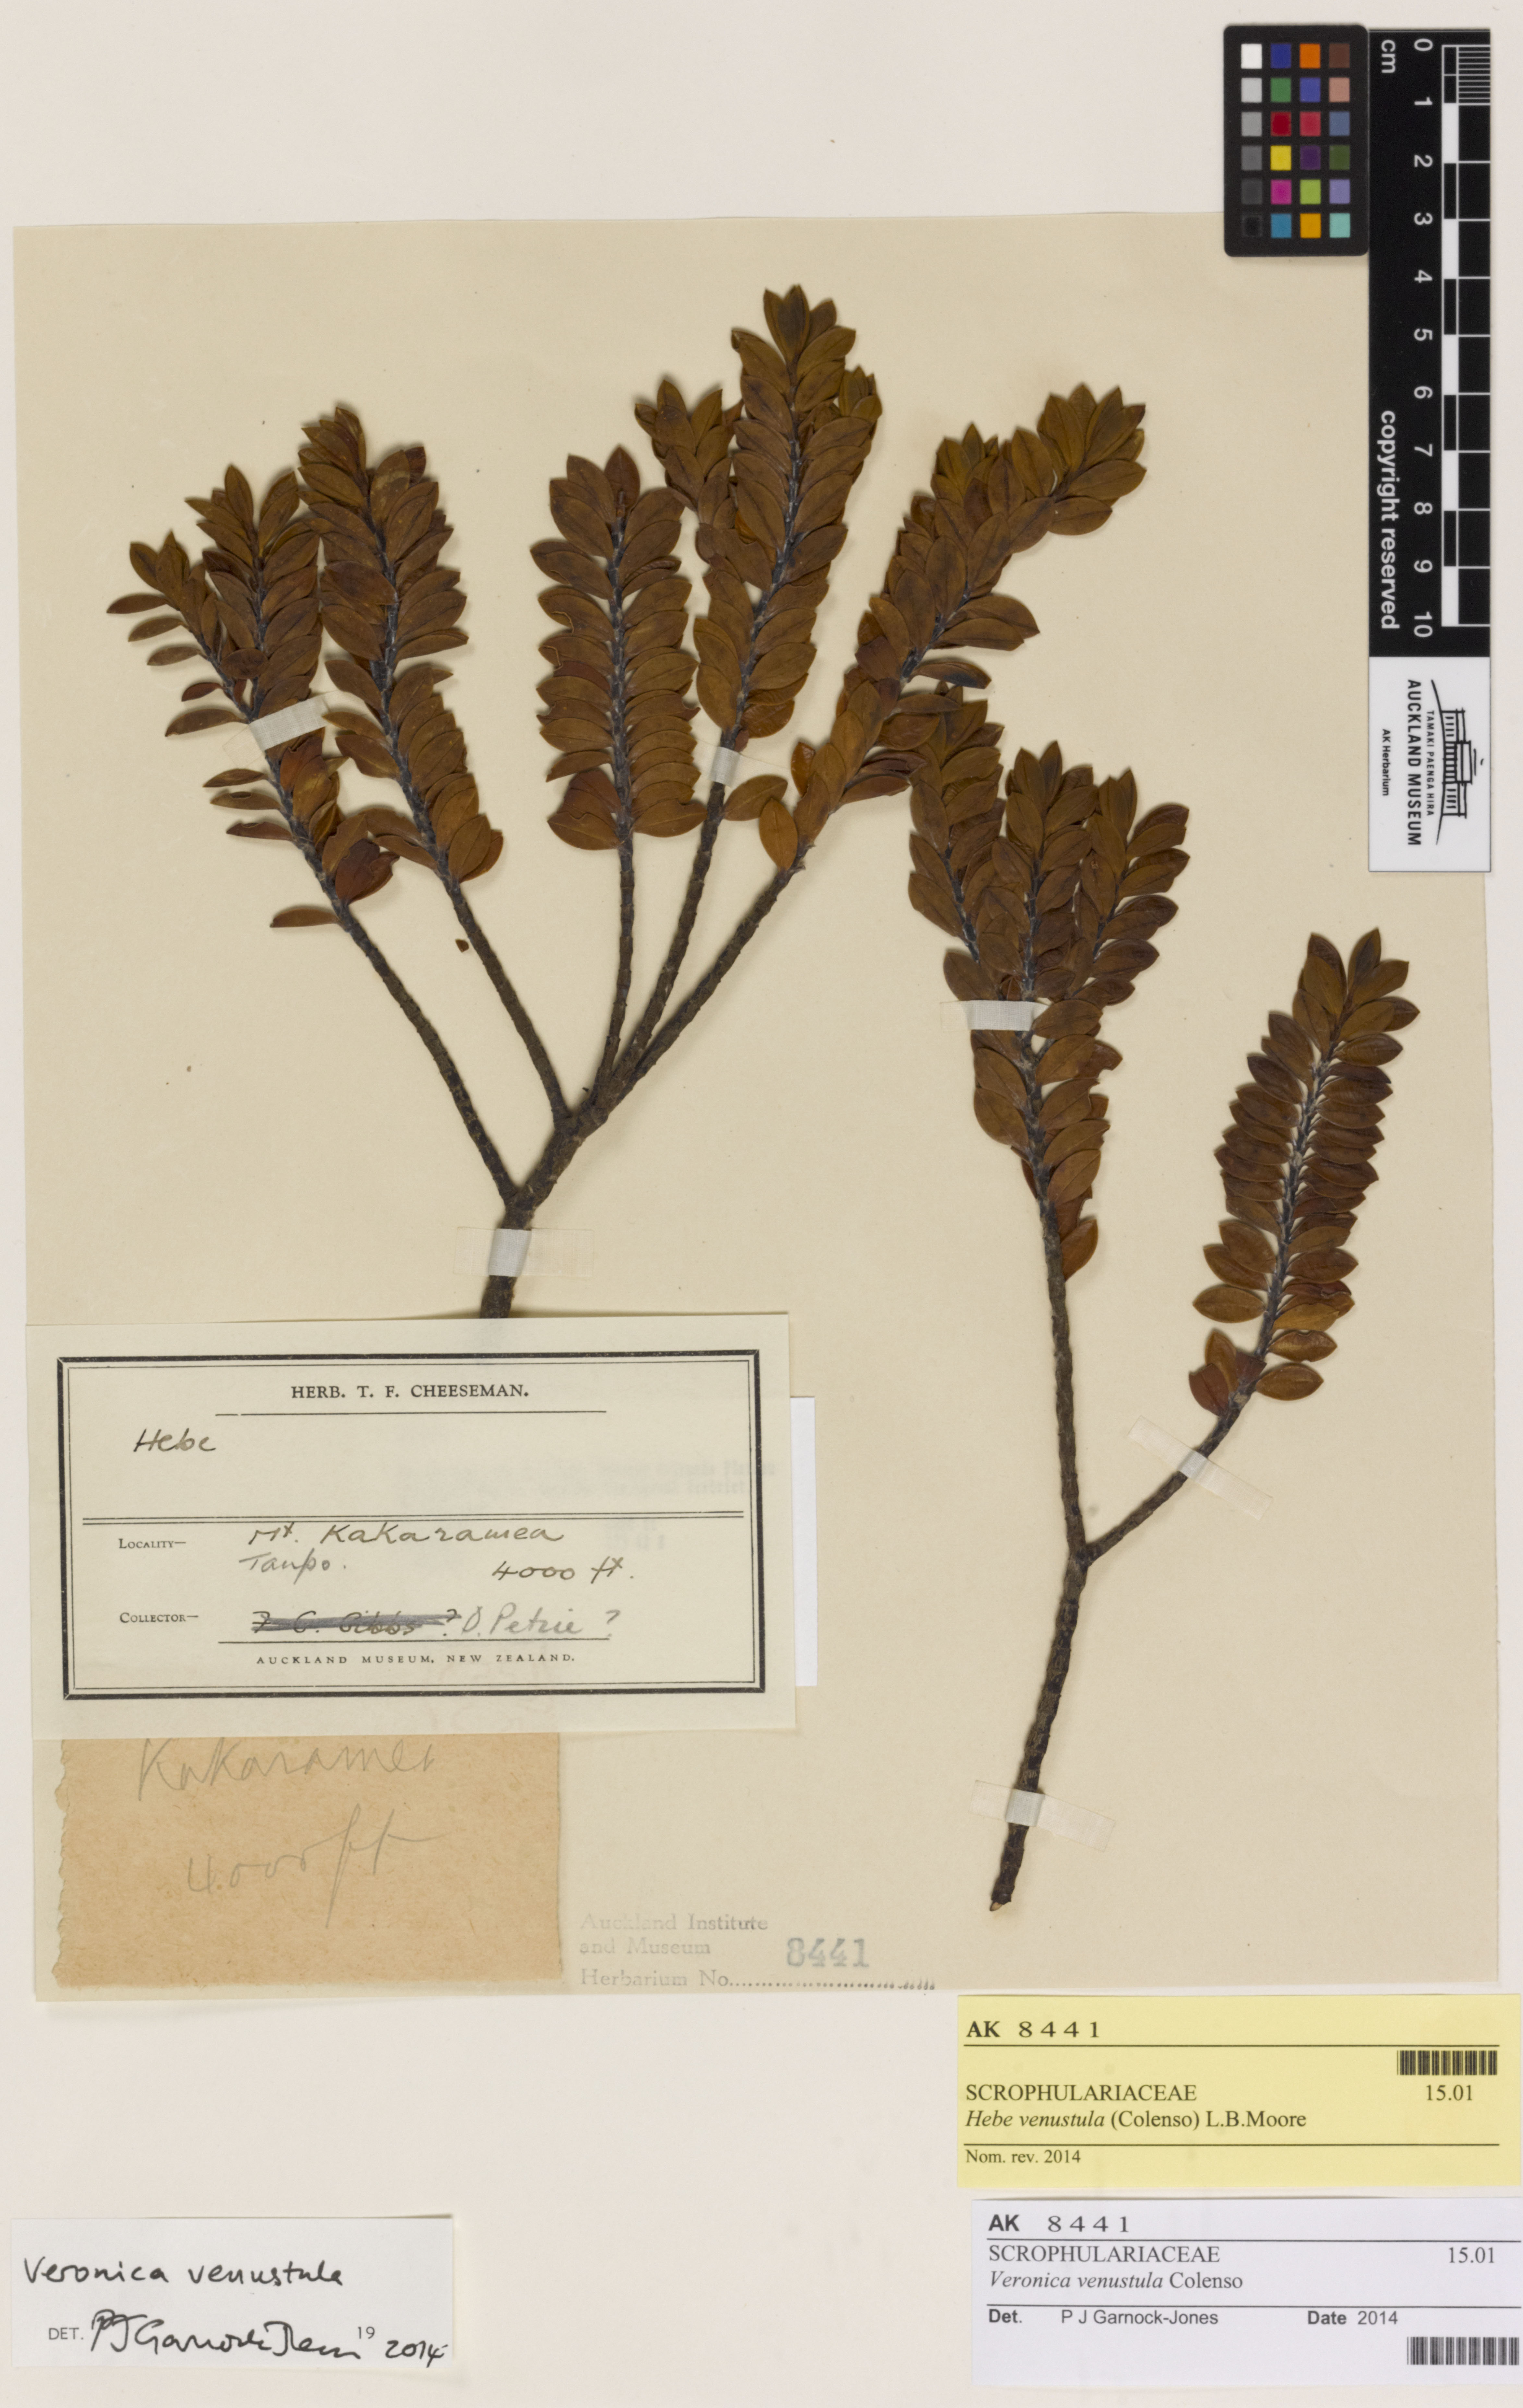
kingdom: Plantae
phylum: Tracheophyta
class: Magnoliopsida
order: Lamiales
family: Plantaginaceae
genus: Veronica
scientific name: Veronica venustula
